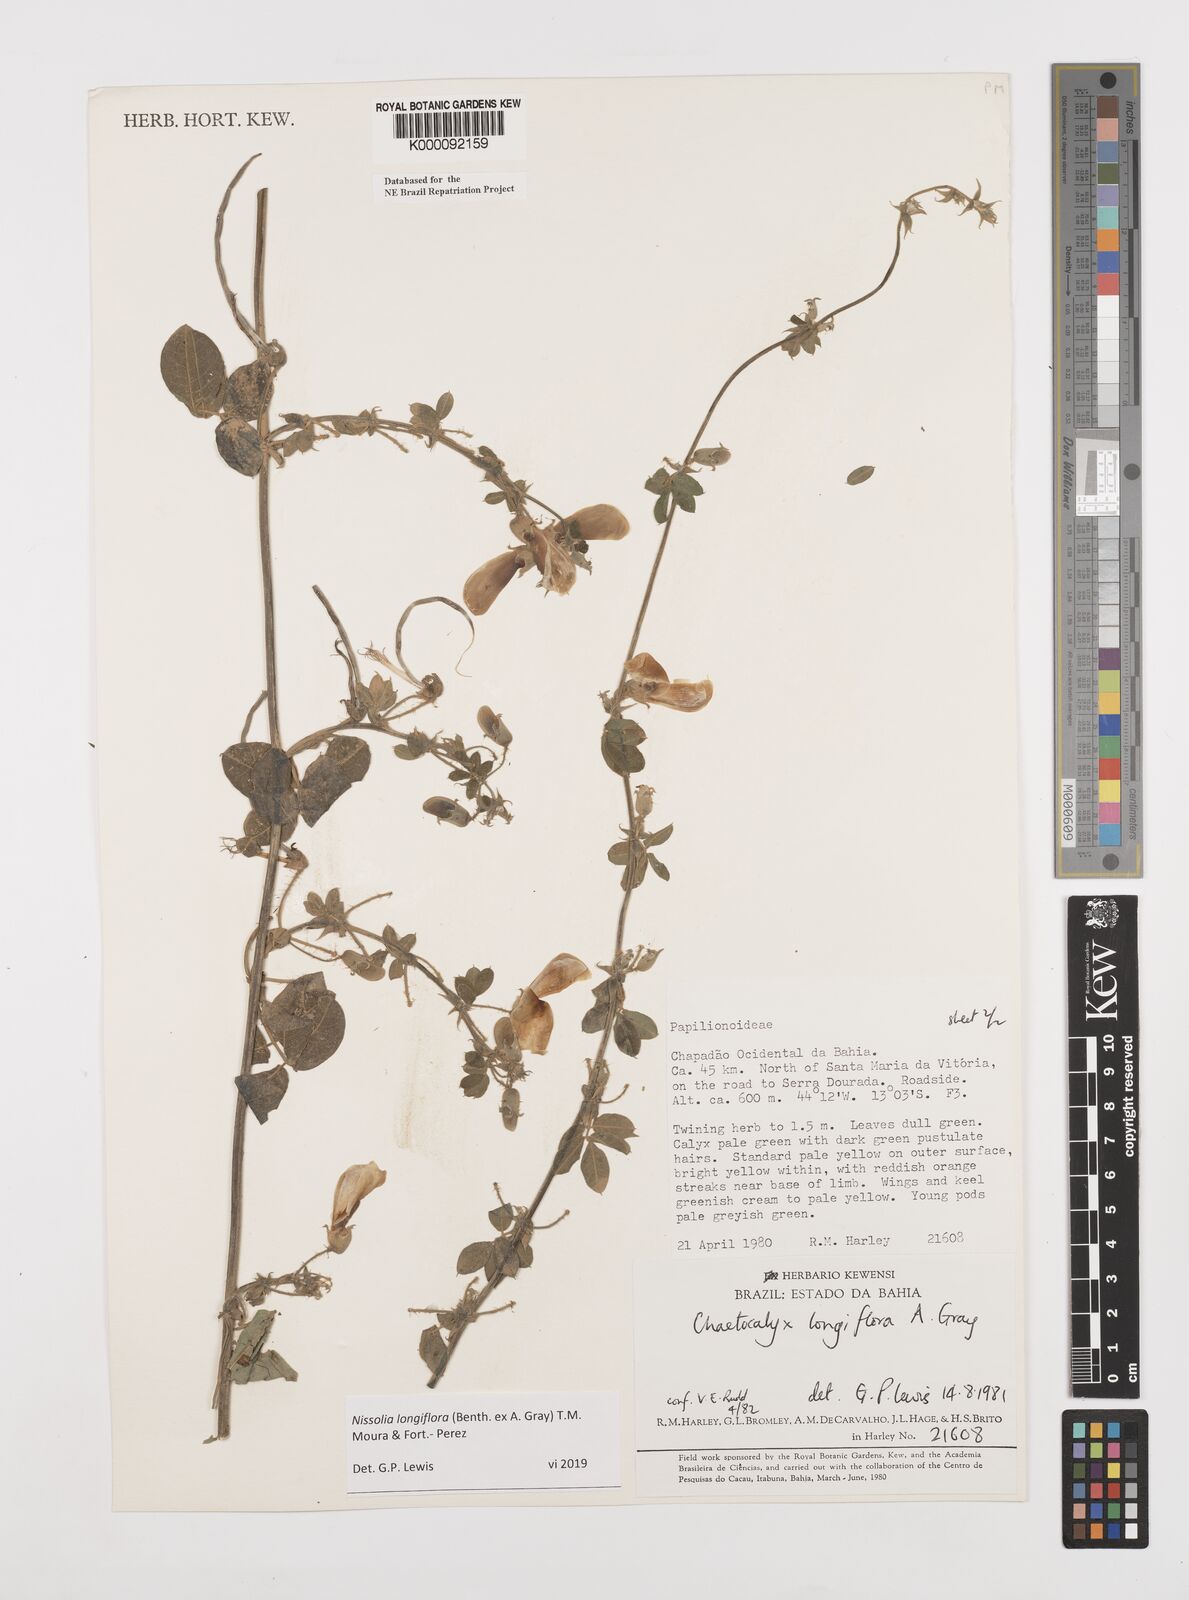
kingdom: Plantae
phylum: Tracheophyta
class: Magnoliopsida
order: Fabales
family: Fabaceae
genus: Nissolia
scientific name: Nissolia longiflora
